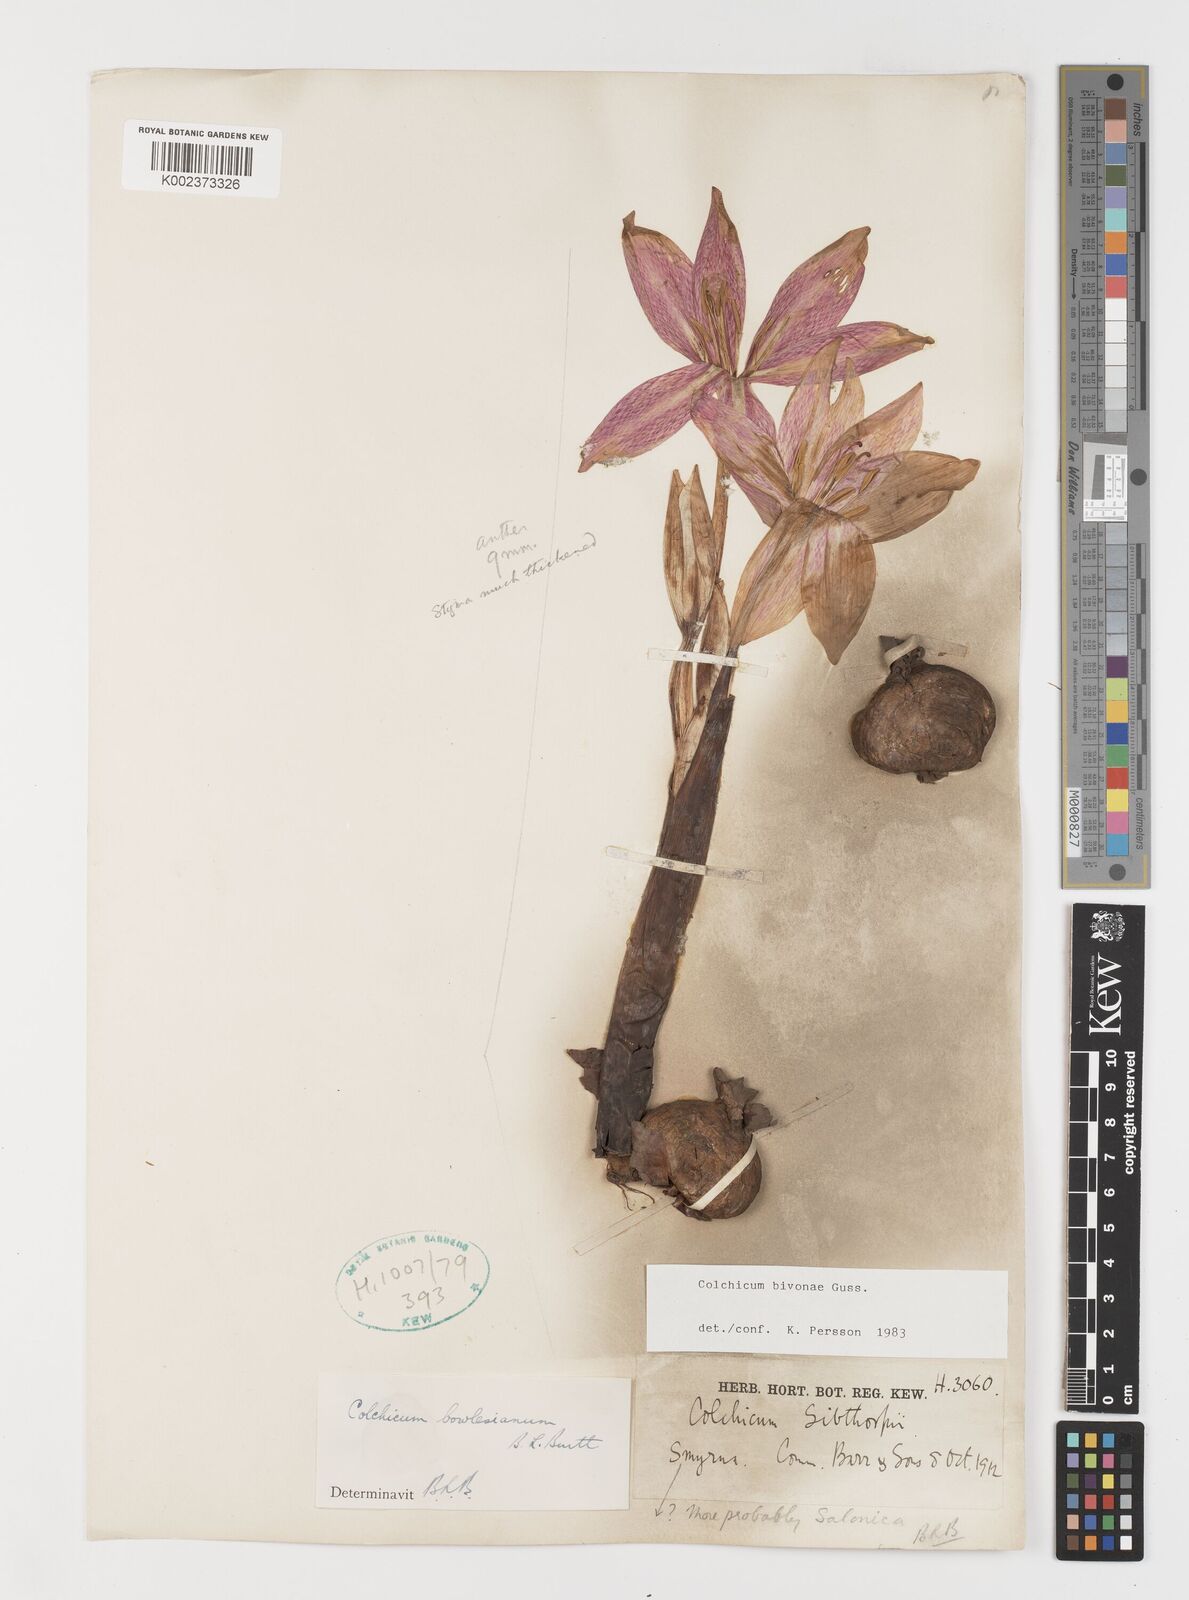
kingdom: Plantae
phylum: Tracheophyta
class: Liliopsida
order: Liliales
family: Colchicaceae
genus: Colchicum
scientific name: Colchicum bivonae
